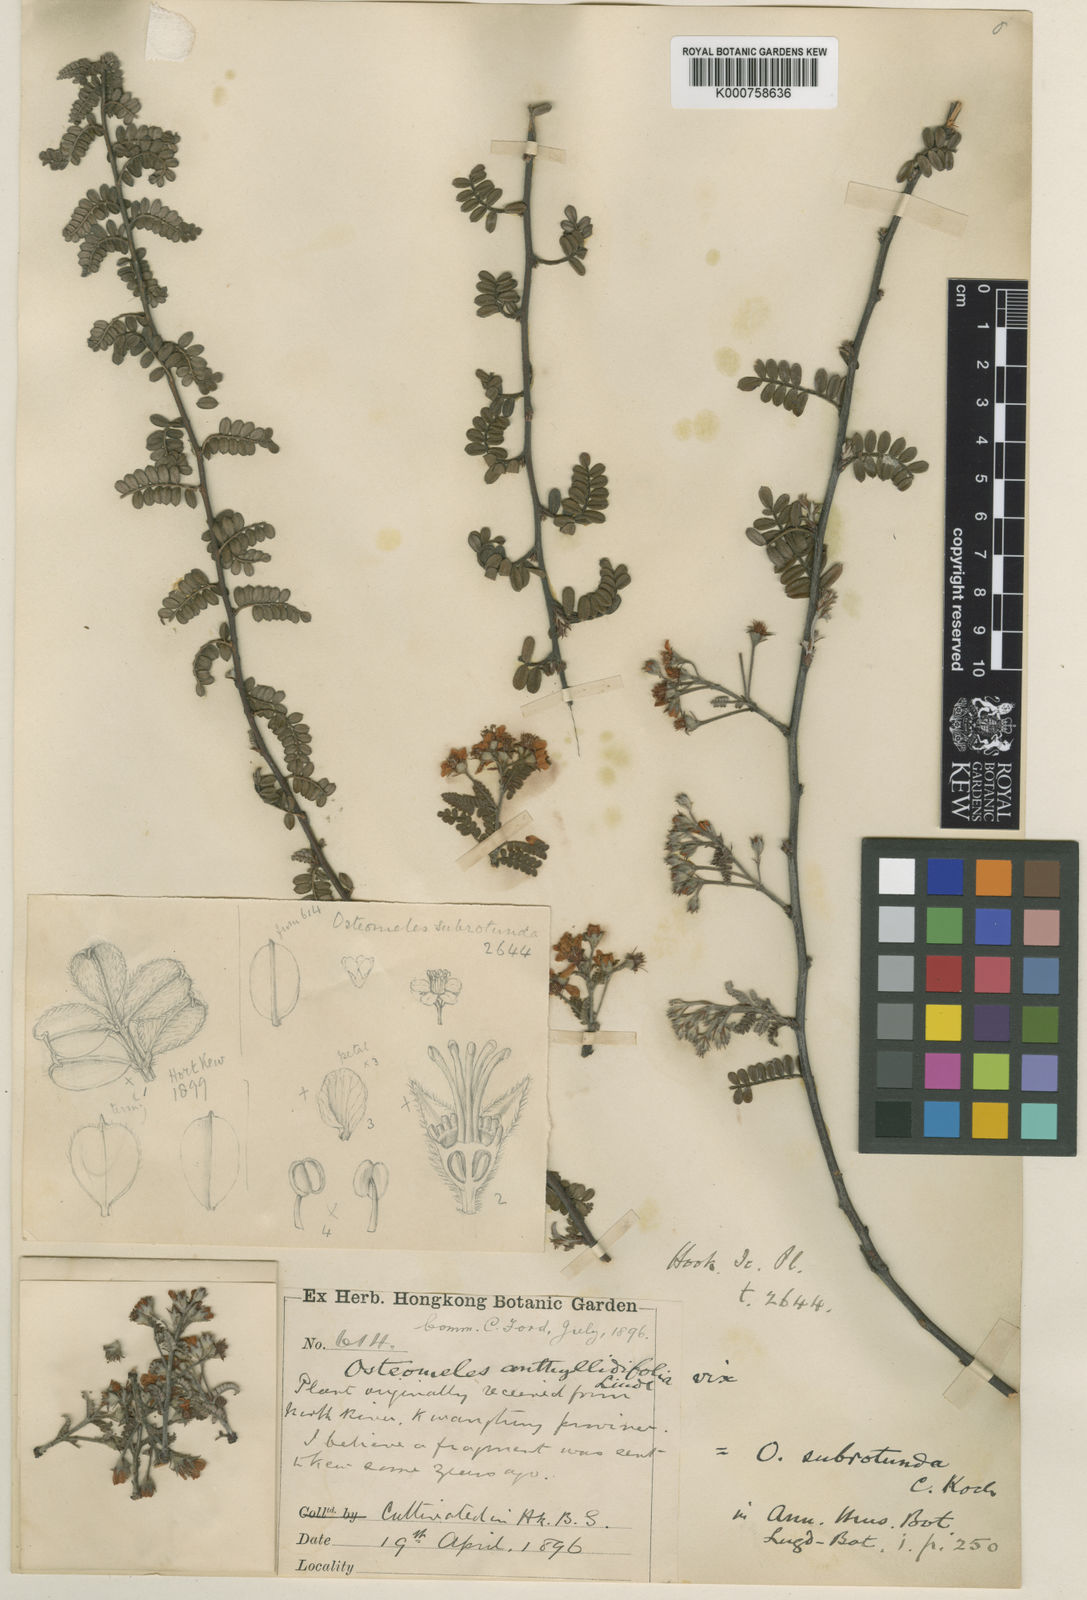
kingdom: Plantae
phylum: Tracheophyta
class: Magnoliopsida
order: Rosales
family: Rosaceae
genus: Osteomeles
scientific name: Osteomeles subrotunda
